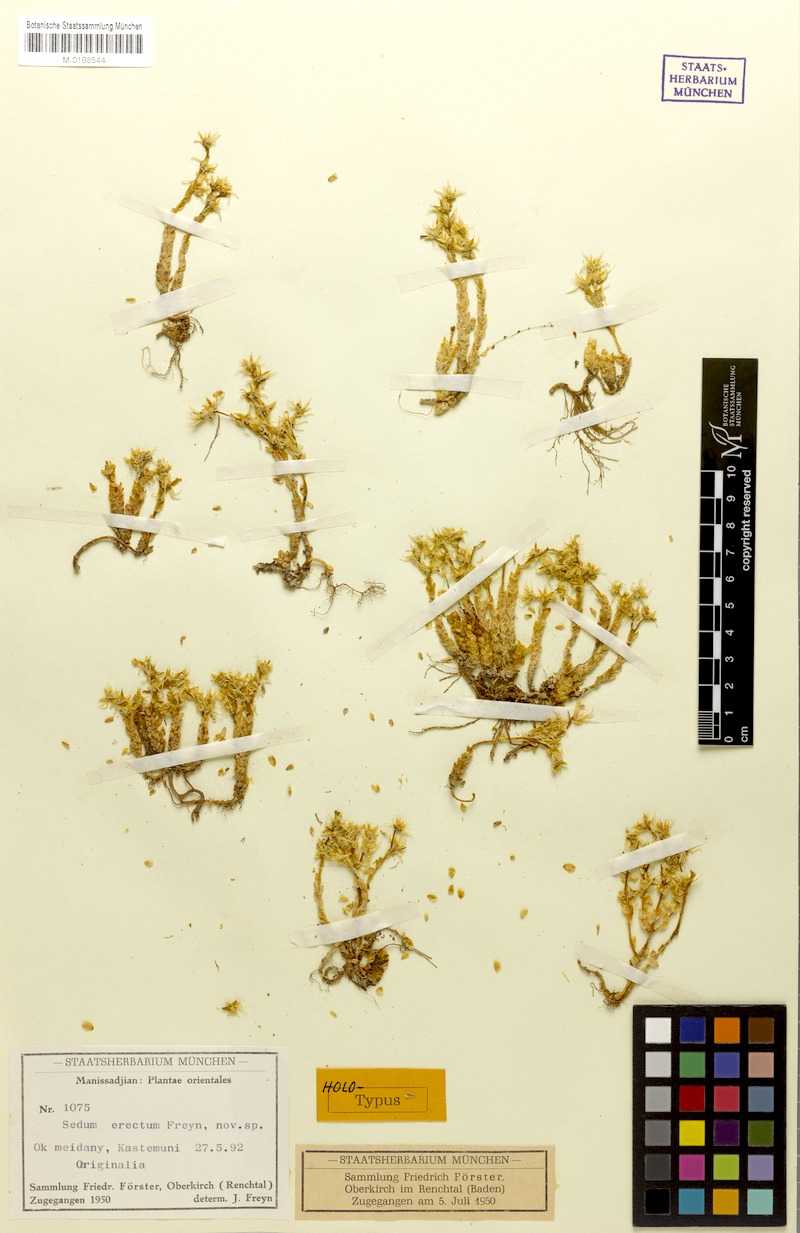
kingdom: Plantae
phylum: Tracheophyta
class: Magnoliopsida
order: Saxifragales
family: Crassulaceae
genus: Sedum
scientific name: Sedum acre
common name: Biting stonecrop
